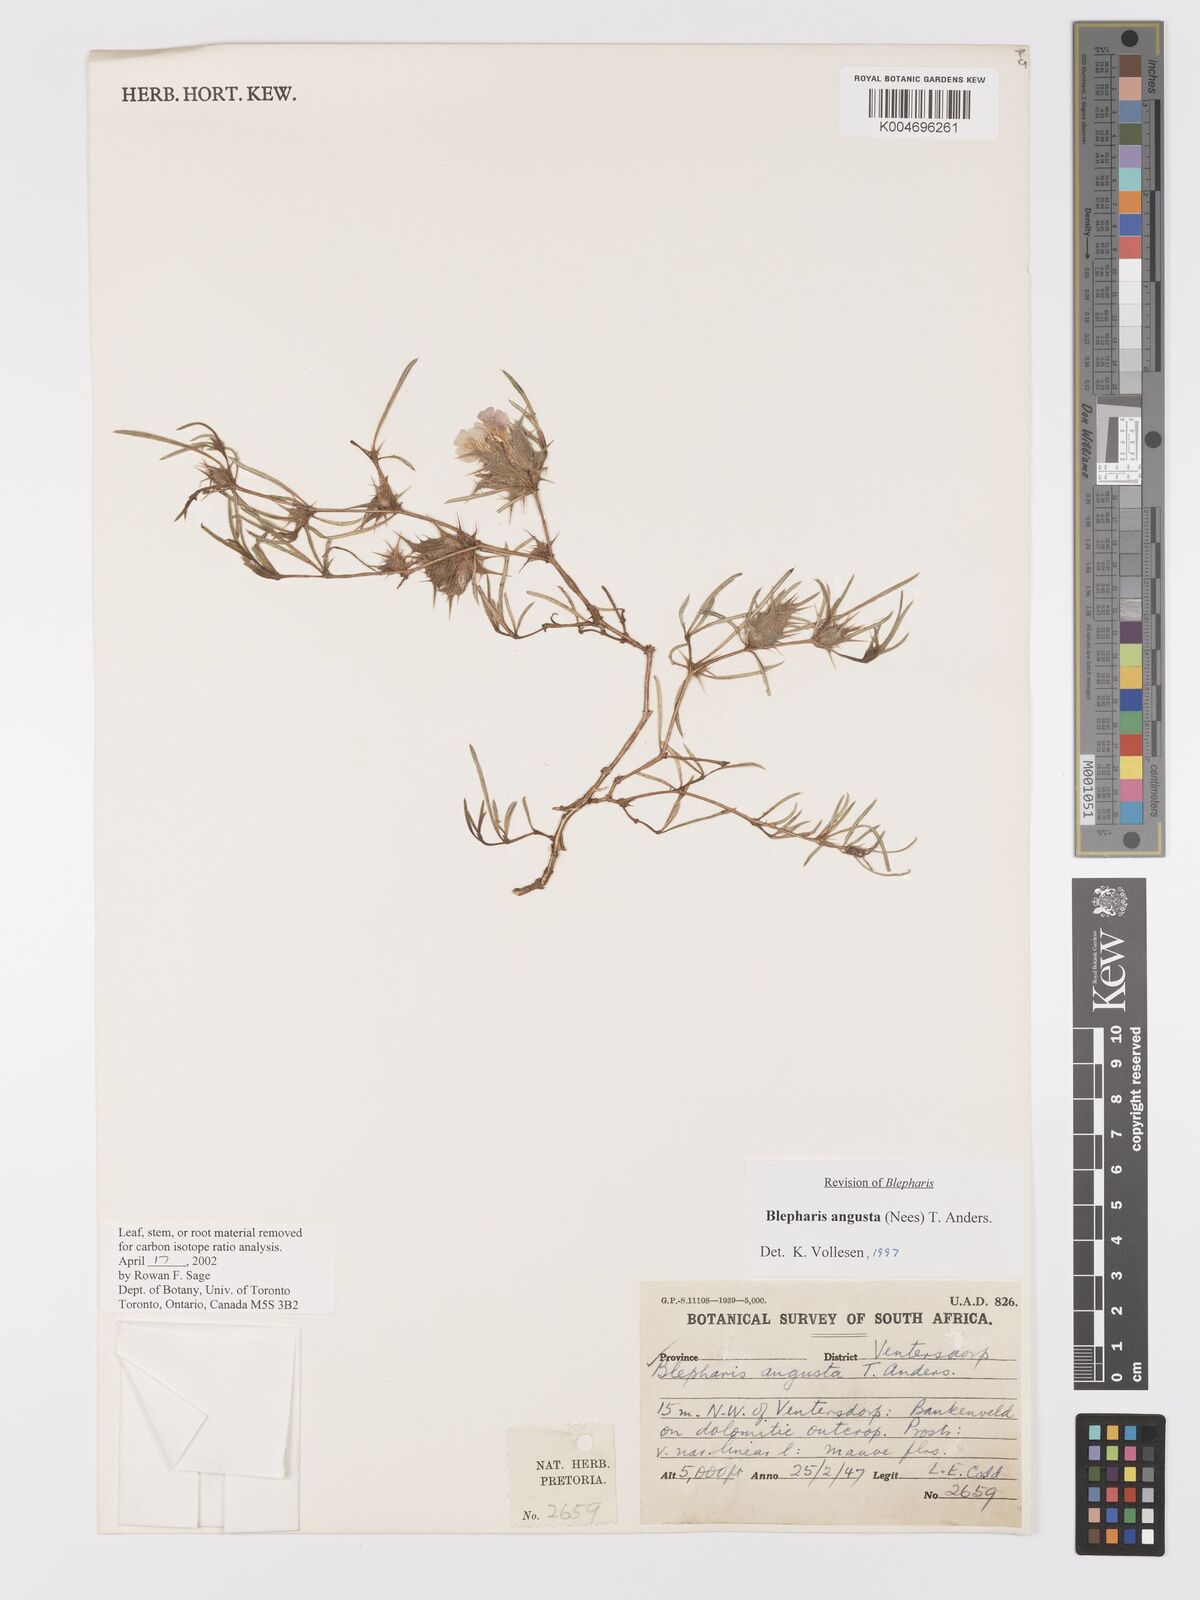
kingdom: Plantae
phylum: Tracheophyta
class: Magnoliopsida
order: Lamiales
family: Acanthaceae
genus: Blepharis
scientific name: Blepharis angusta
